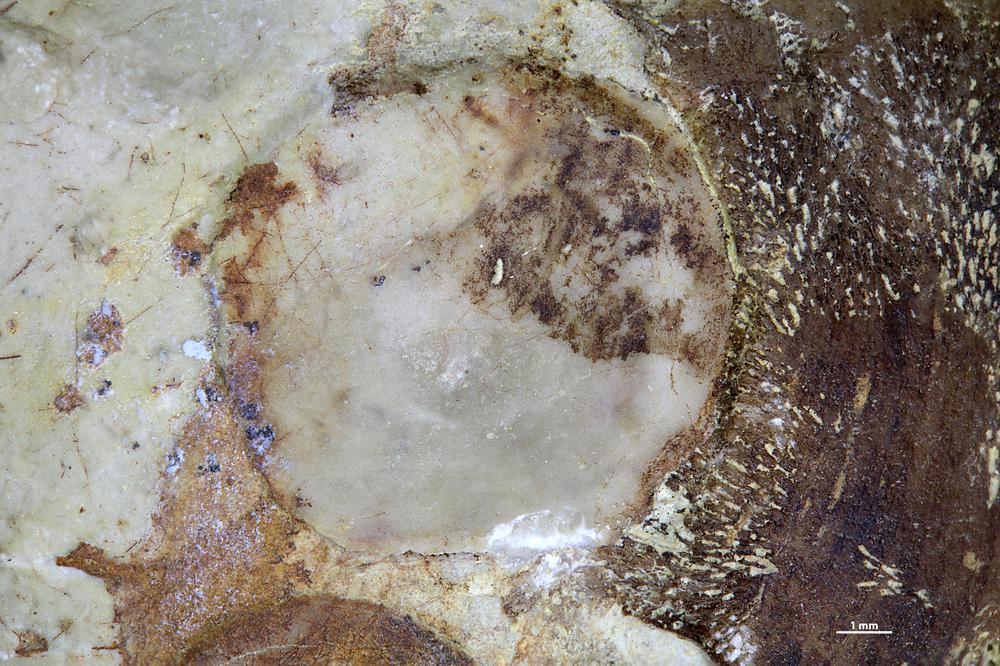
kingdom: Animalia
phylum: Brachiopoda
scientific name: Brachiopoda
